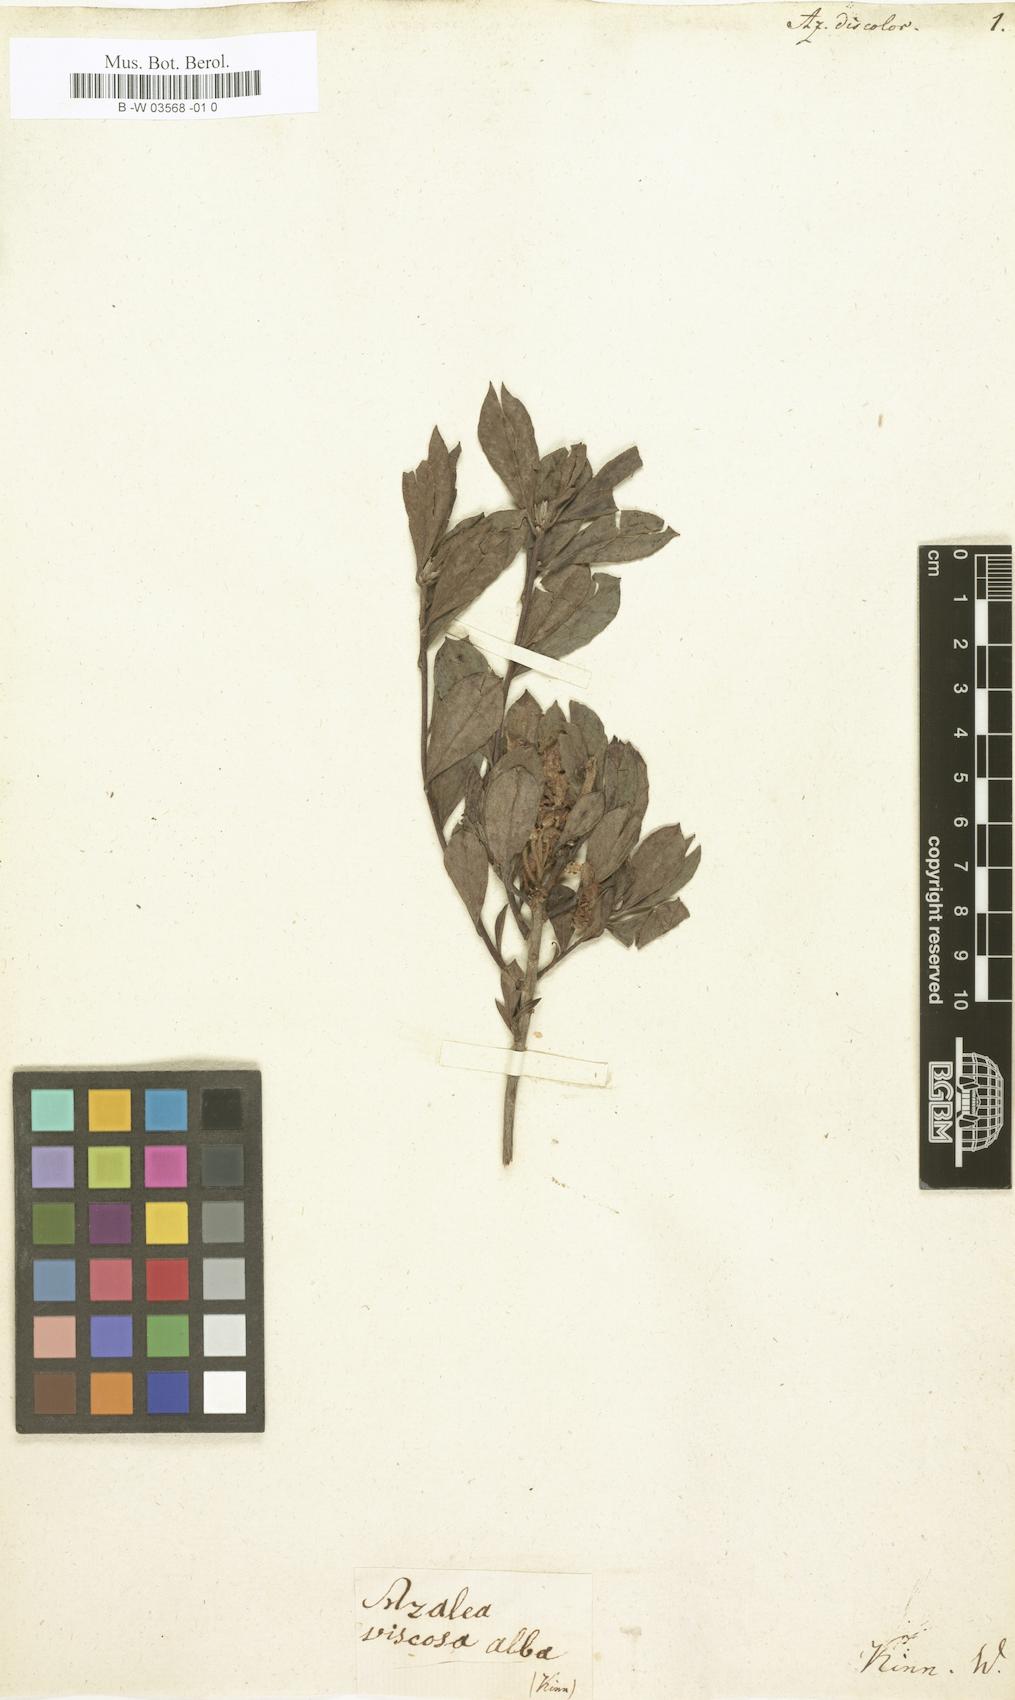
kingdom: Plantae
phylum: Tracheophyta
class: Magnoliopsida
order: Ericales
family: Ericaceae
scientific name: Ericaceae
